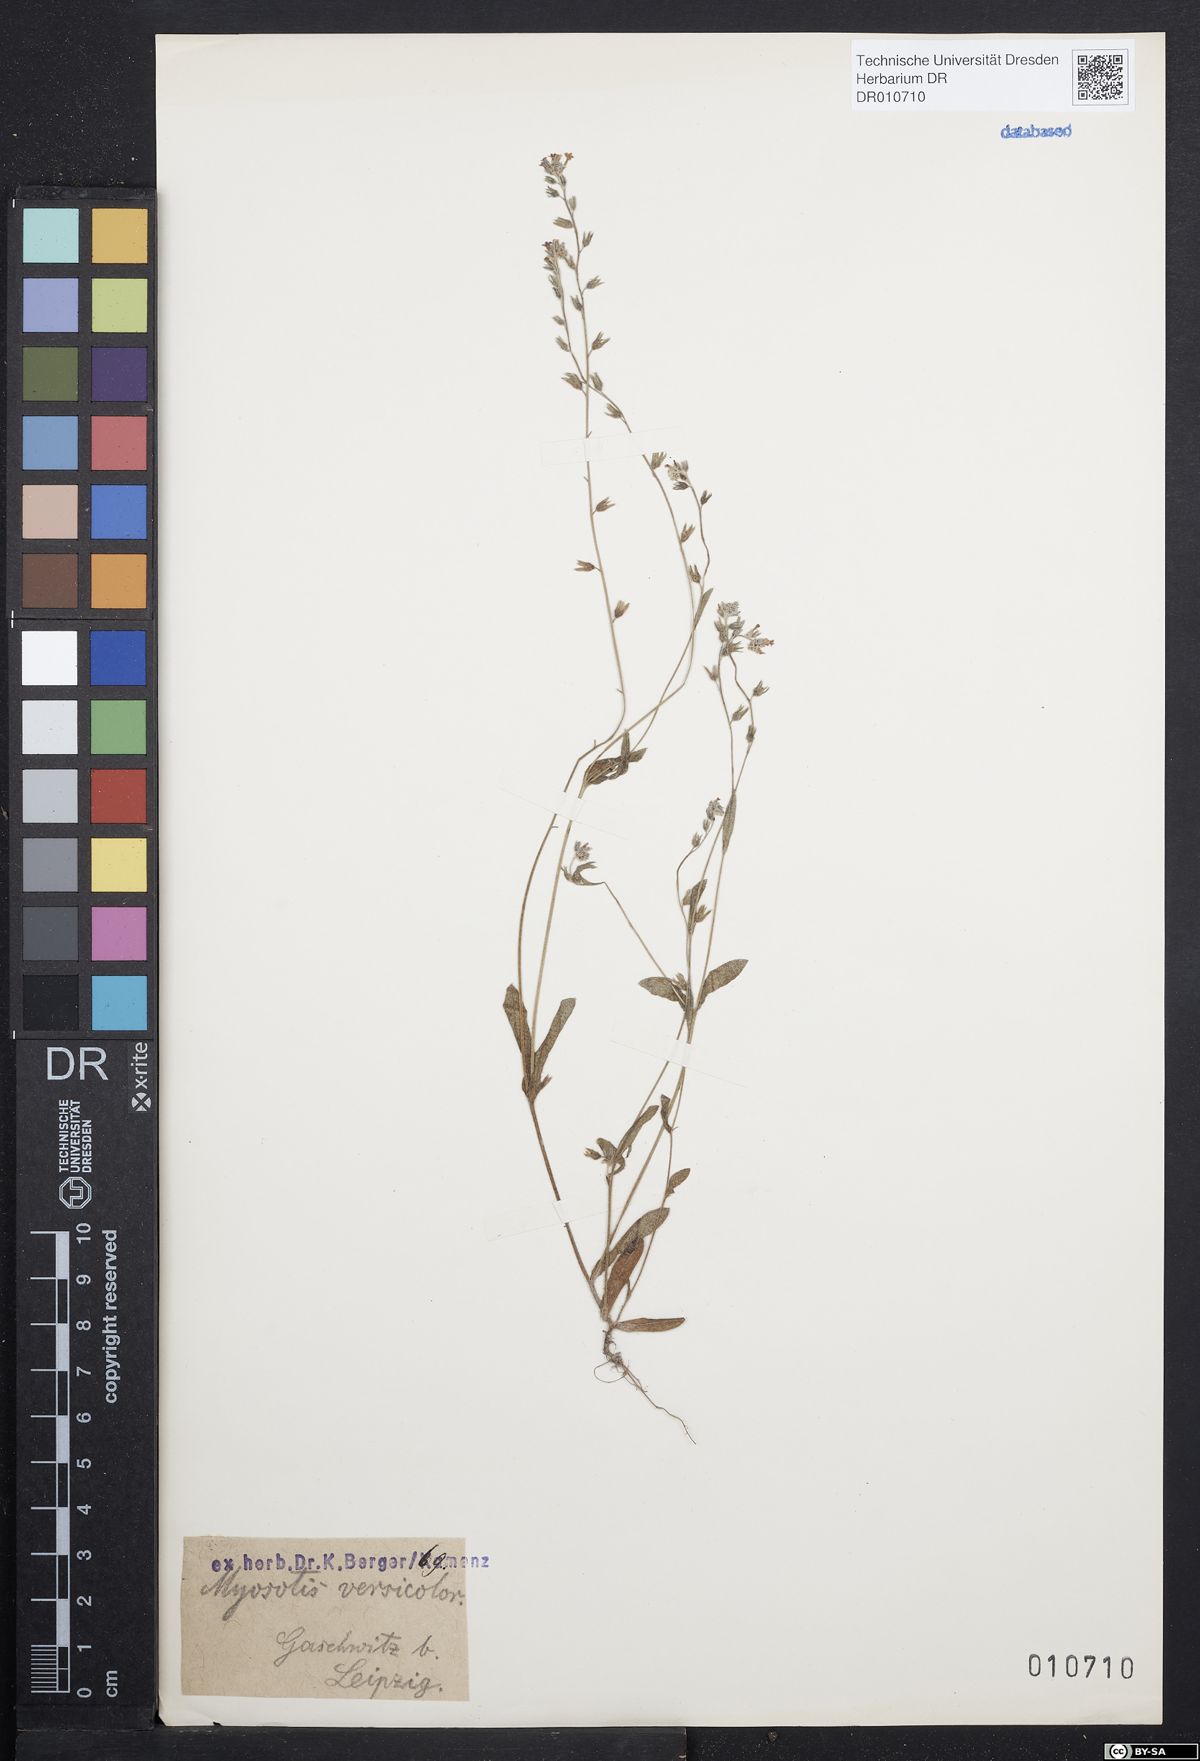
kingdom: Plantae
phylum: Tracheophyta
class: Magnoliopsida
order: Boraginales
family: Boraginaceae
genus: Myosotis
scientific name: Myosotis discolor
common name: Changing forget-me-not
